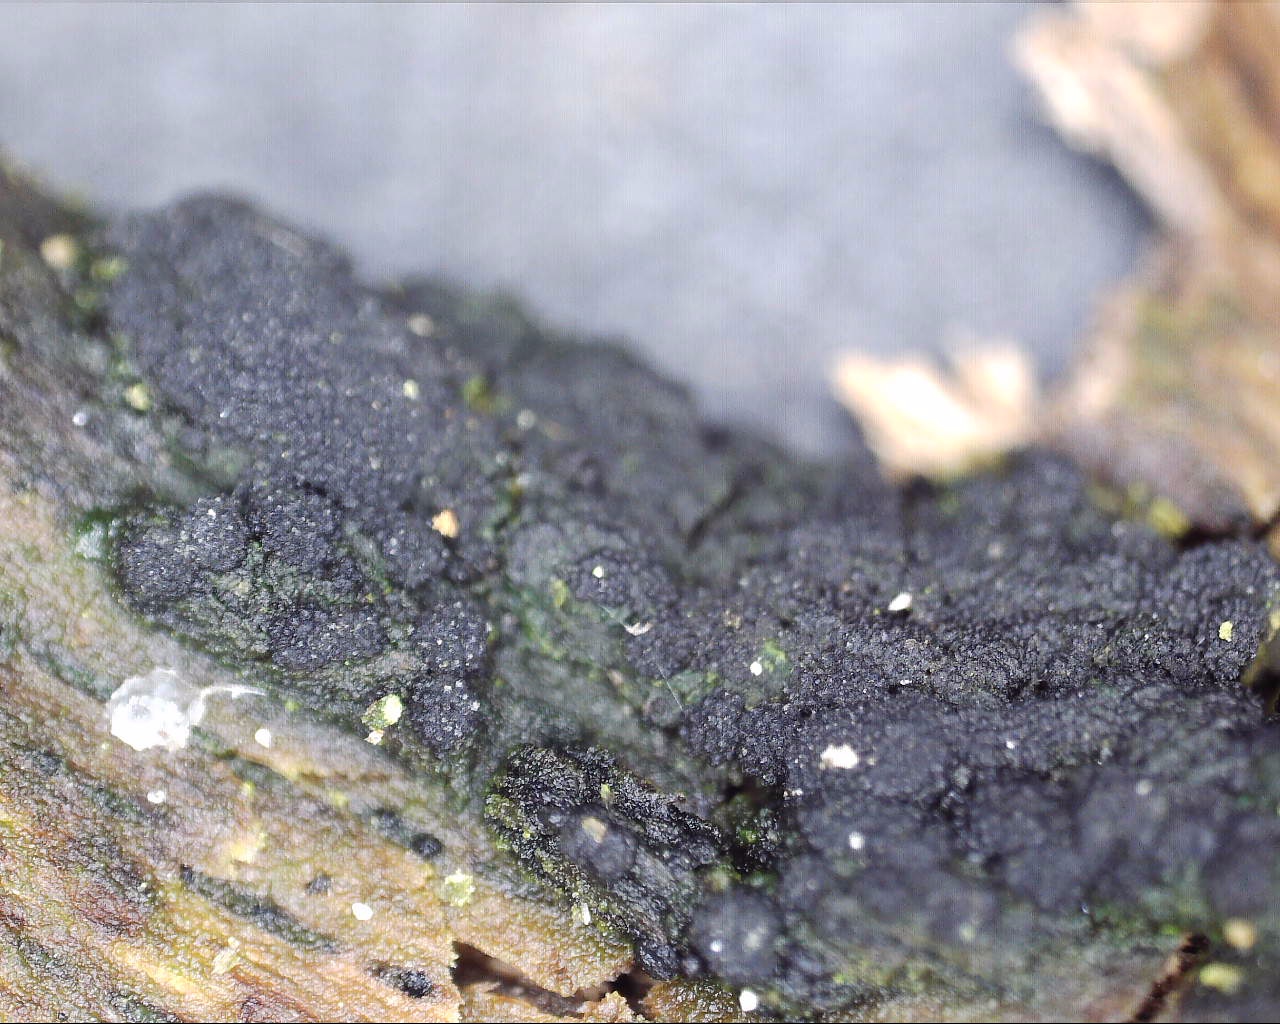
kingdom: Fungi
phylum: Ascomycota
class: Eurotiomycetes
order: Chaetothyriales
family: Herpotrichiellaceae
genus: Capronia
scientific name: Capronia nigerrima
